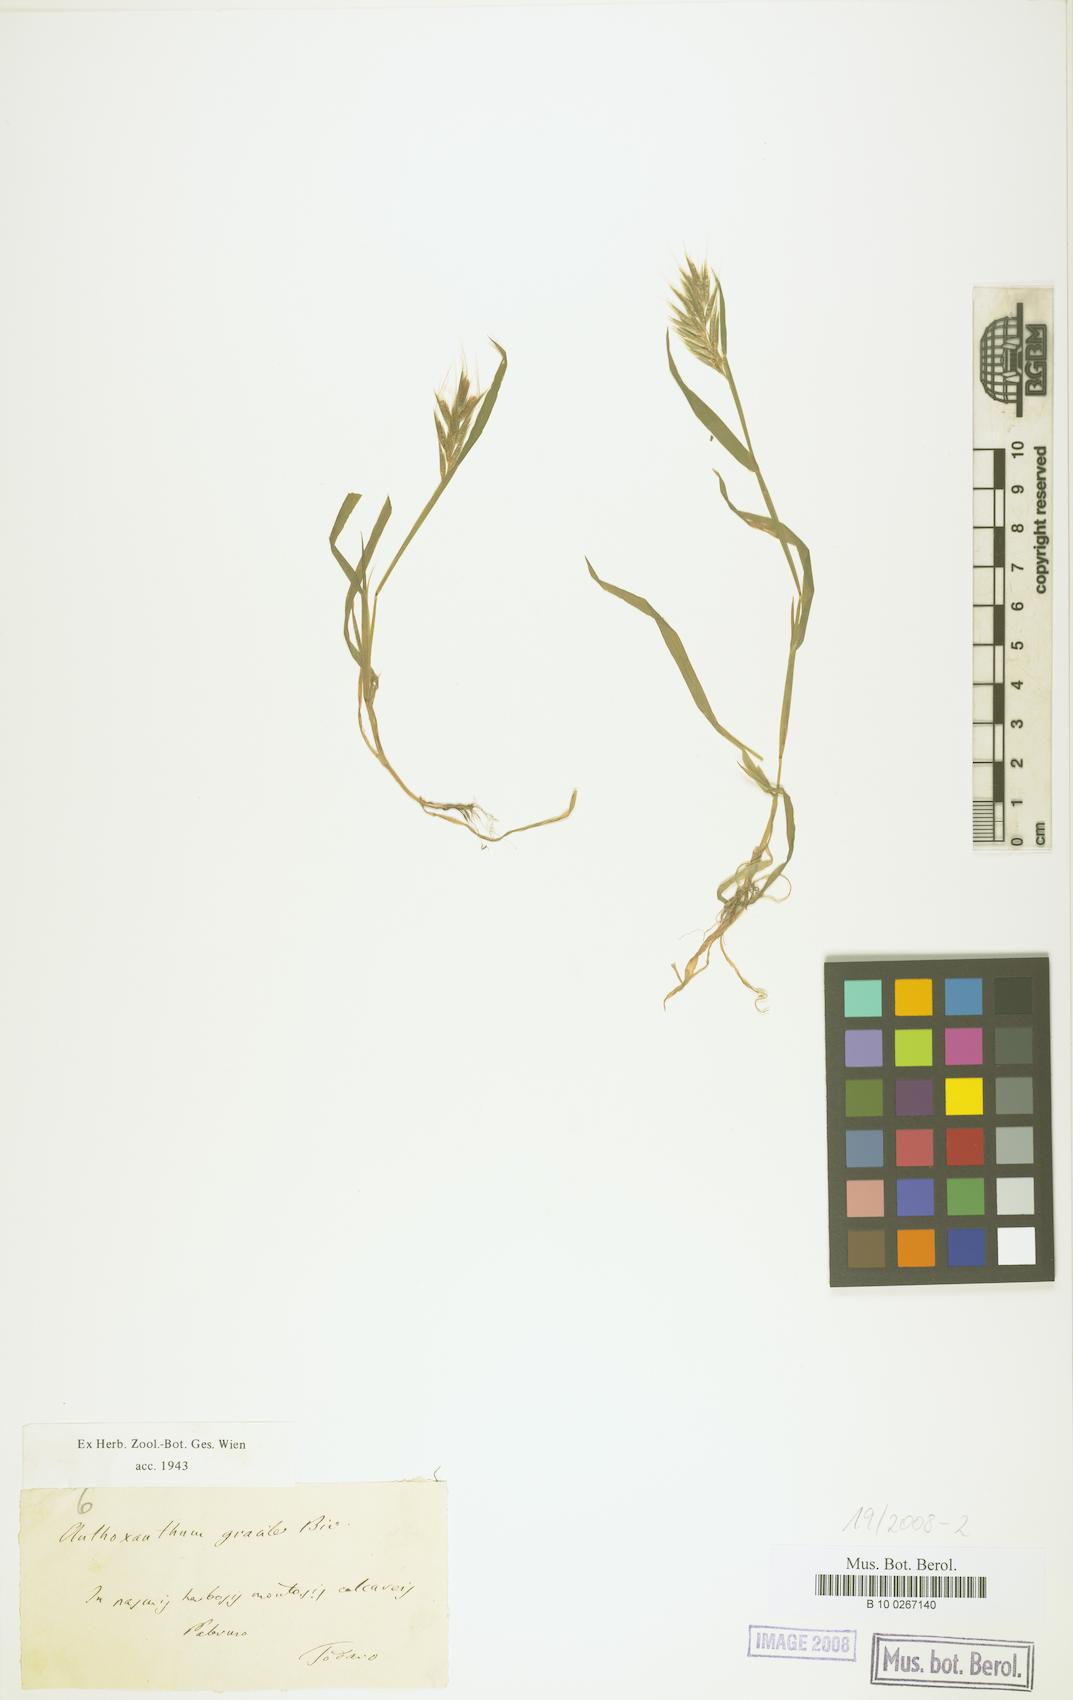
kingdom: Plantae
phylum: Tracheophyta
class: Liliopsida
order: Poales
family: Poaceae
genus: Anthoxanthum
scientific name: Anthoxanthum gracile
